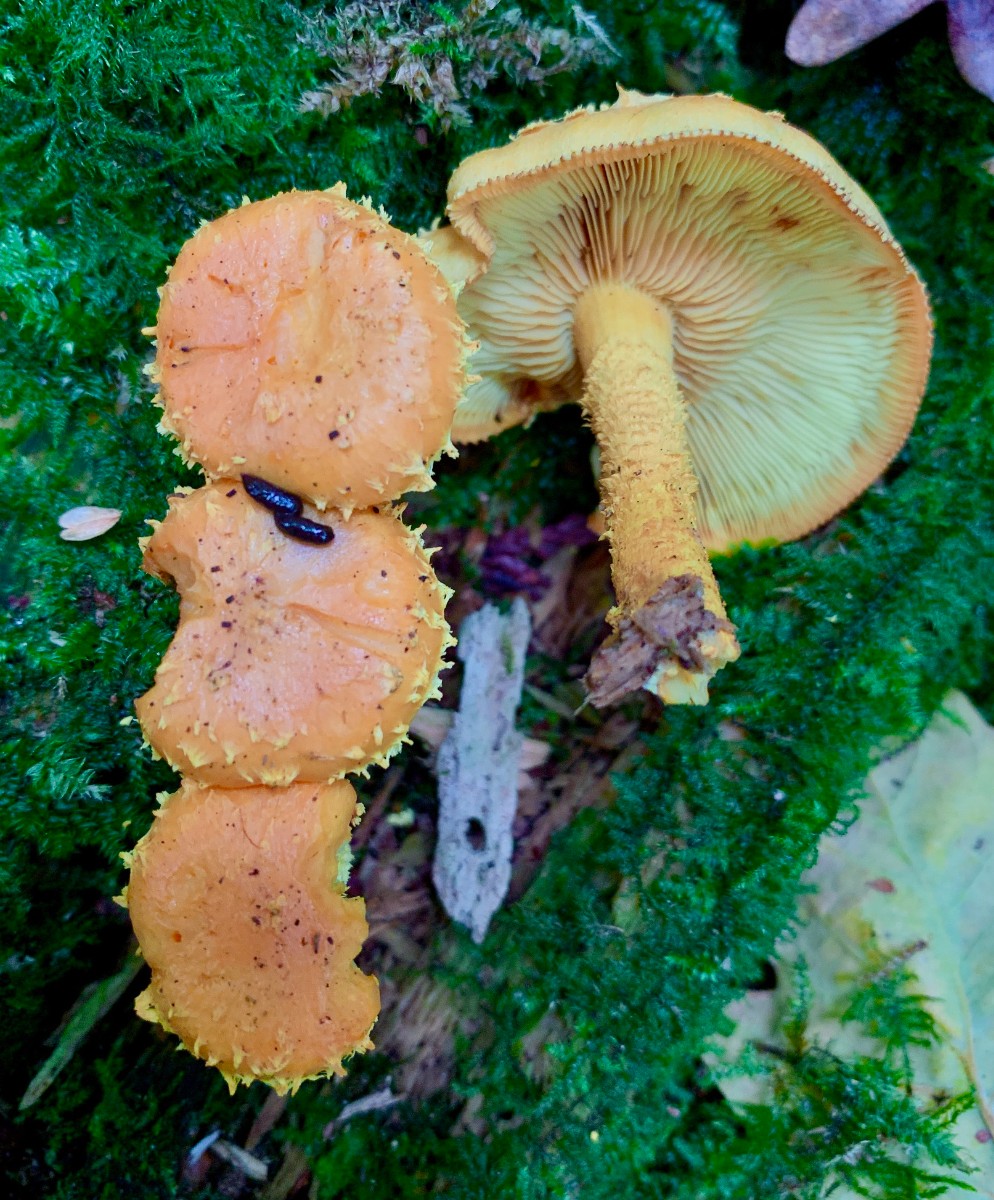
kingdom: Fungi
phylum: Basidiomycota
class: Agaricomycetes
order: Agaricales
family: Strophariaceae
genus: Pholiota
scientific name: Pholiota flammans
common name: flamme-skælhat
